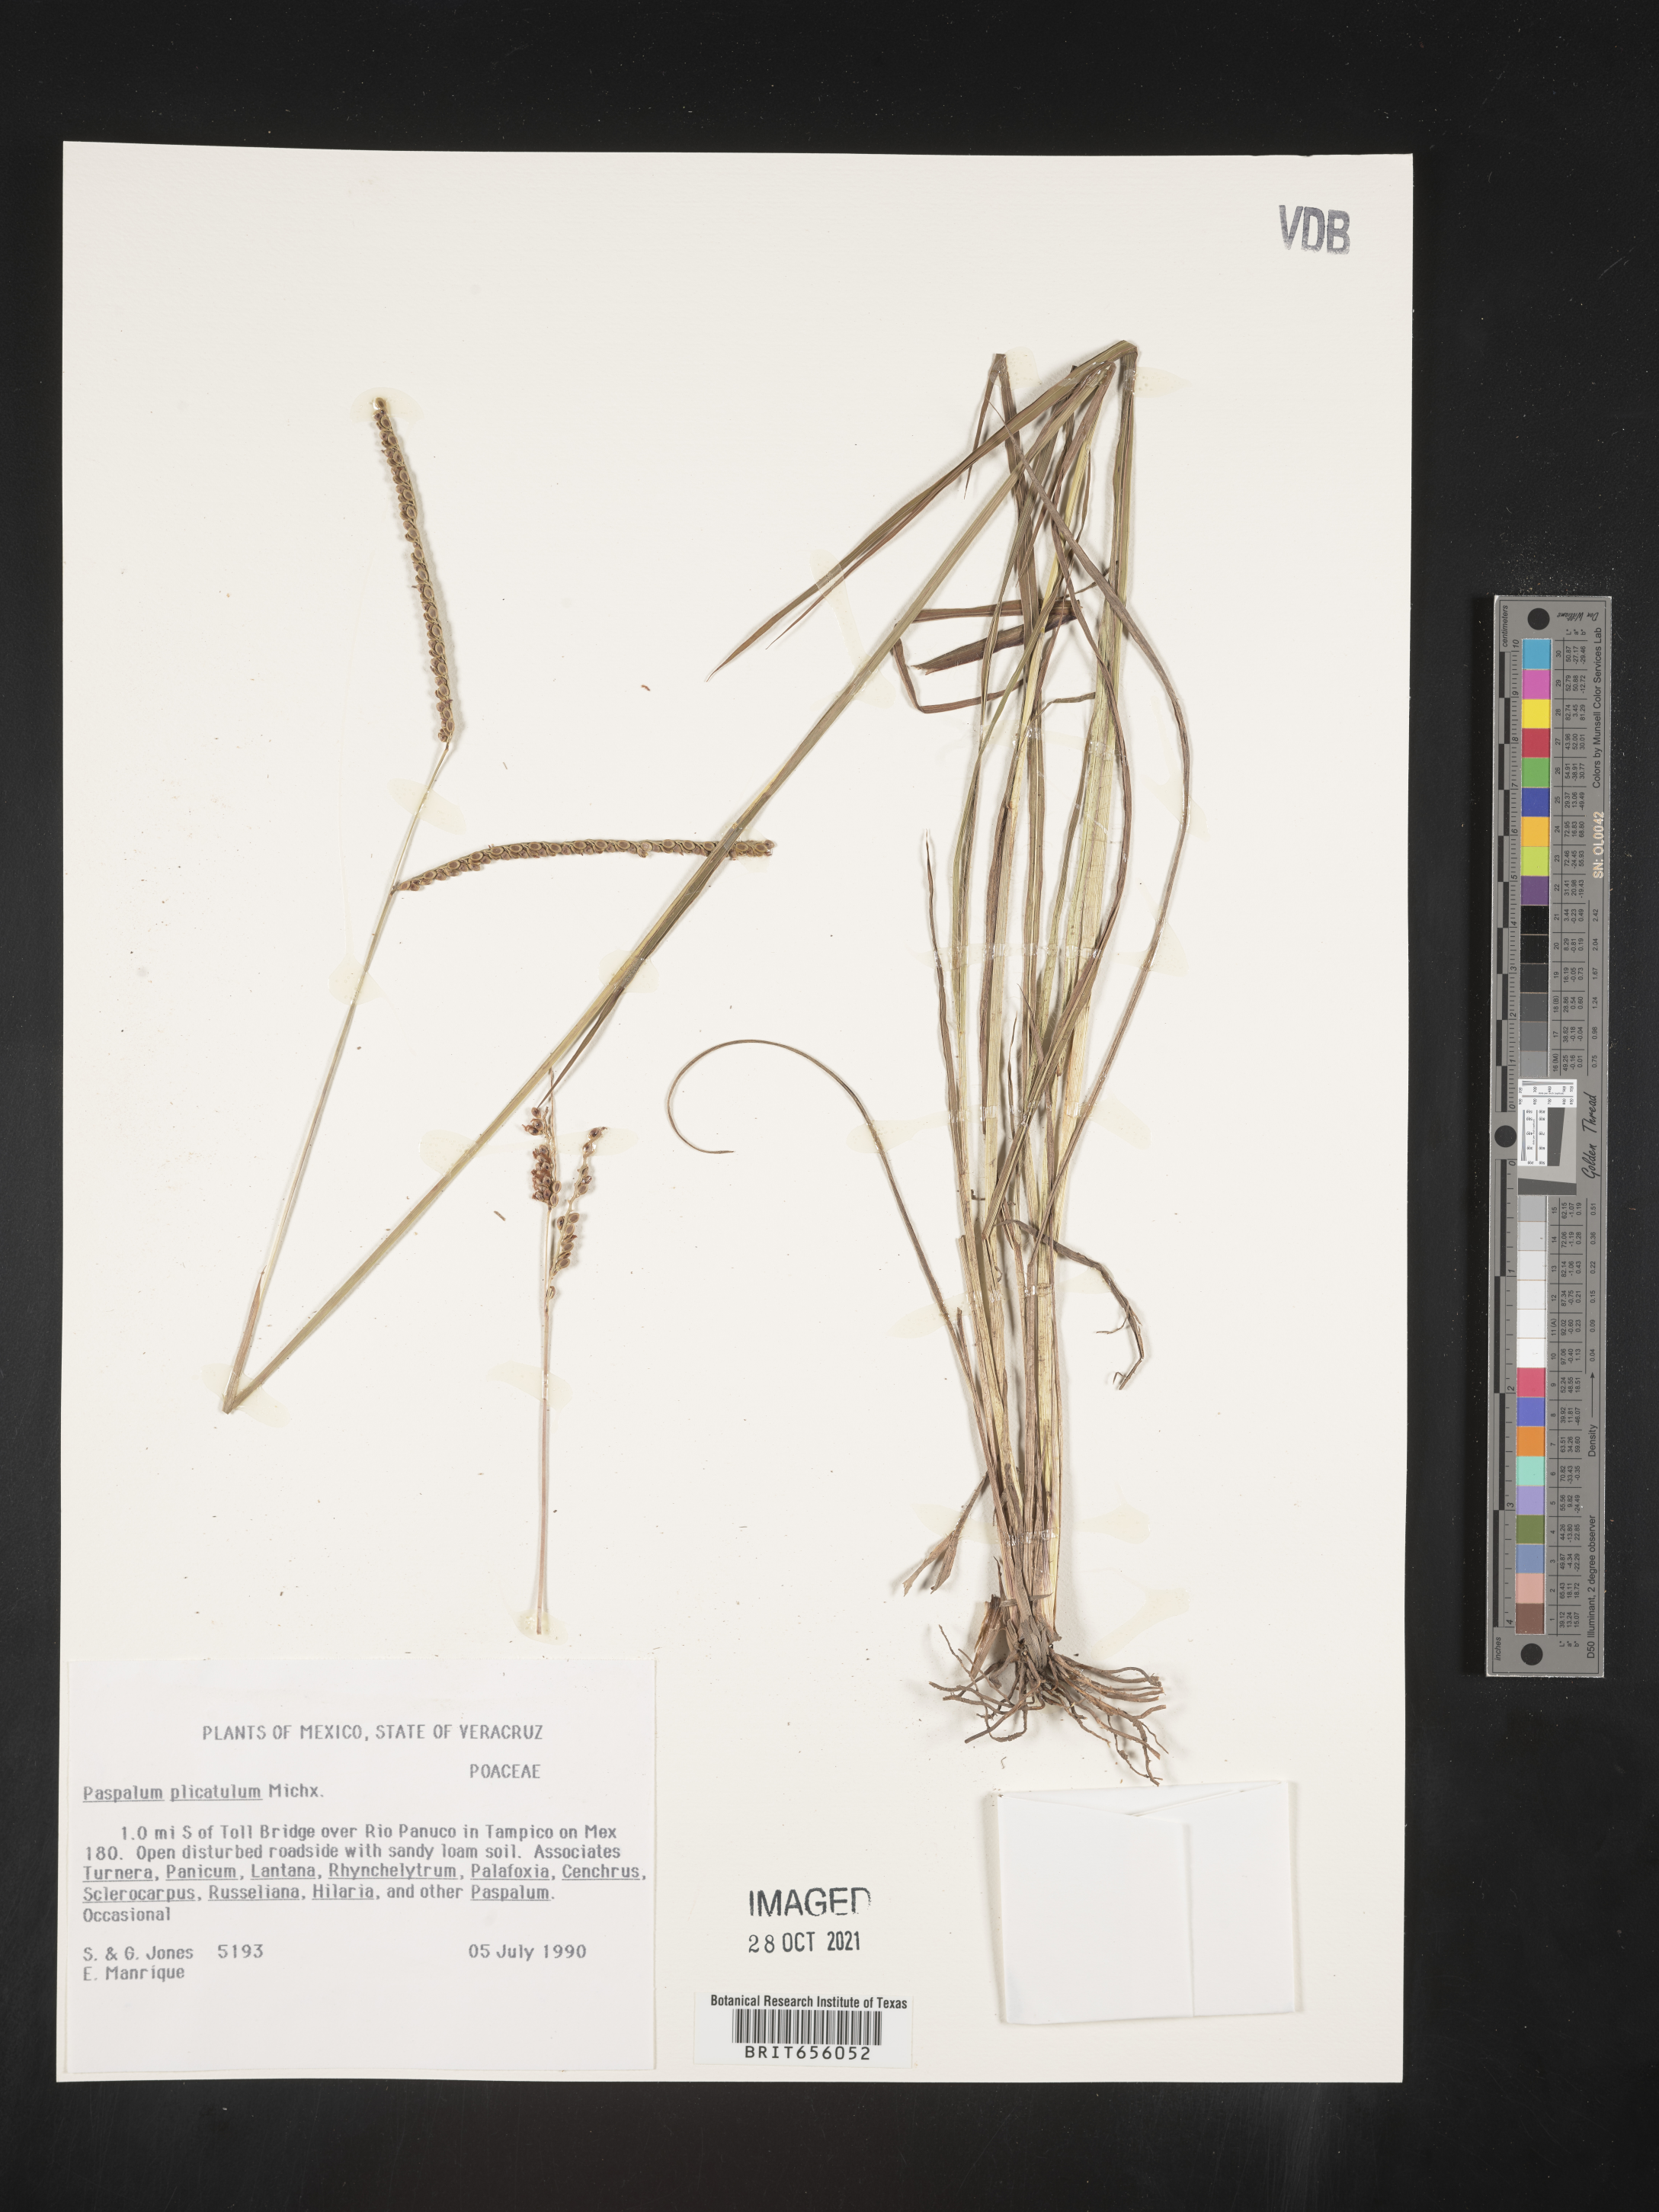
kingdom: Plantae
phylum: Tracheophyta
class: Liliopsida
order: Poales
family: Poaceae
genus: Paspalum
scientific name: Paspalum
